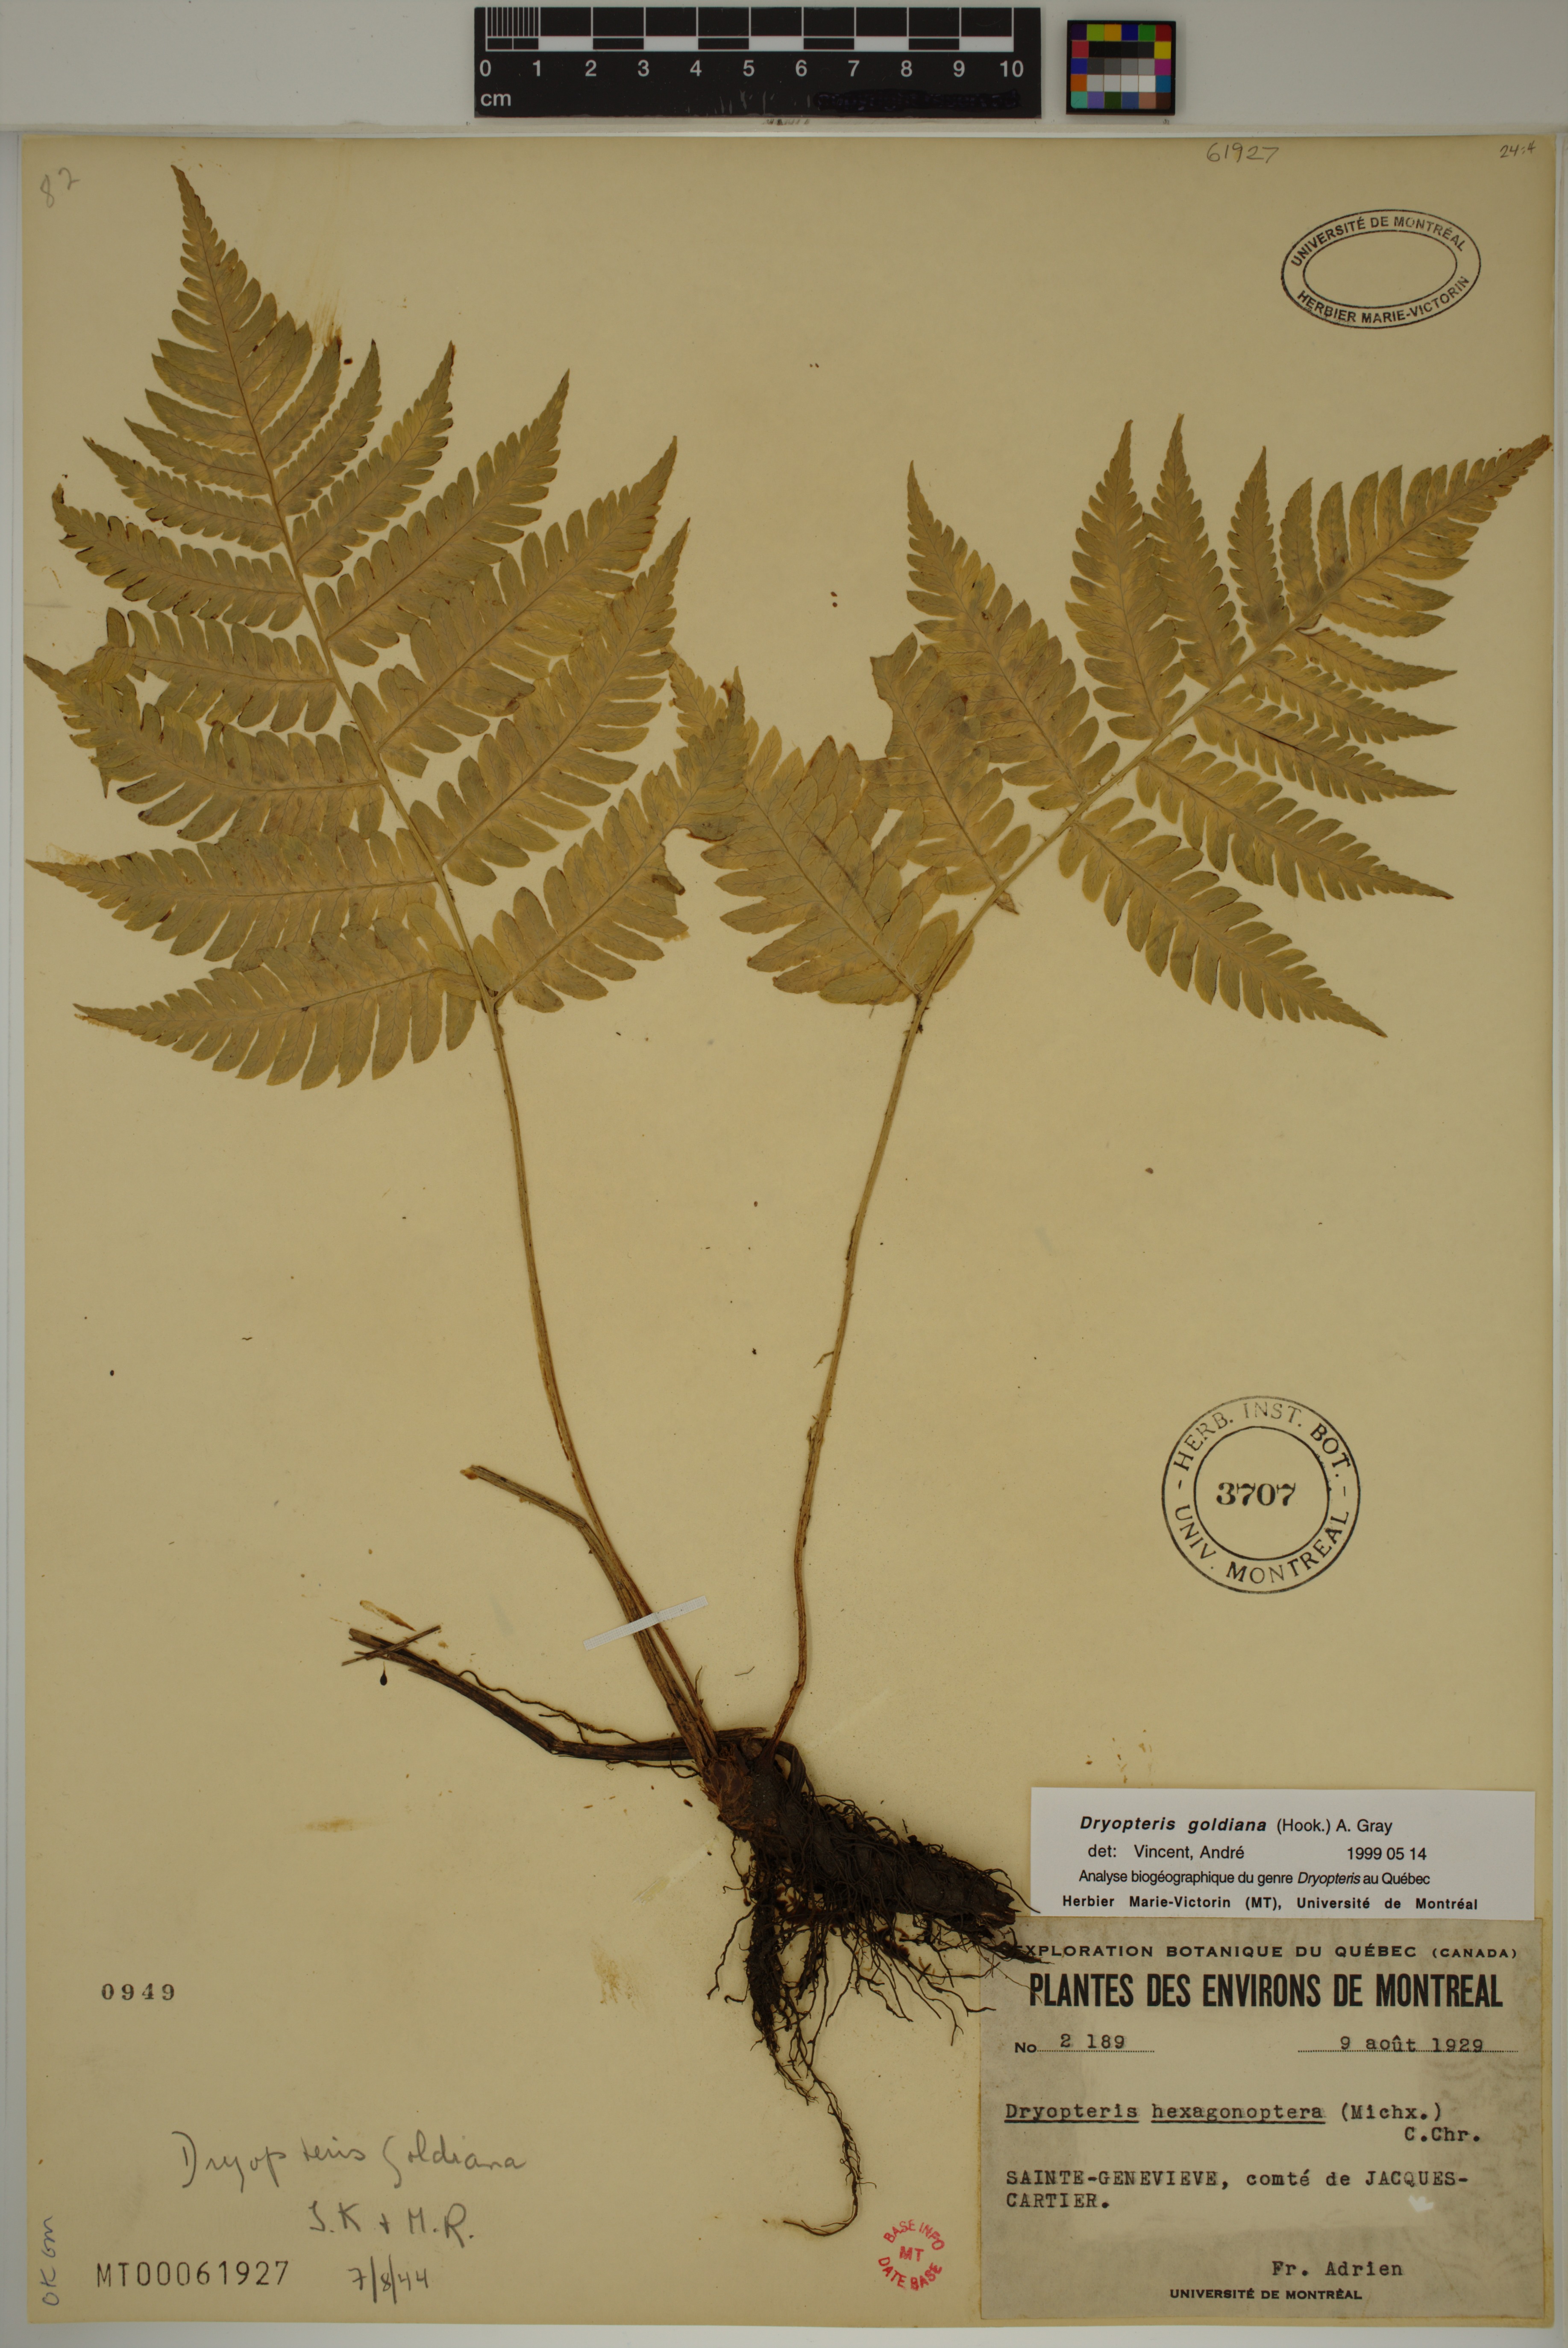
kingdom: Plantae
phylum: Tracheophyta
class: Polypodiopsida
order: Polypodiales
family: Dryopteridaceae
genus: Dryopteris
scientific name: Dryopteris goldieana
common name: Goldie's fern
